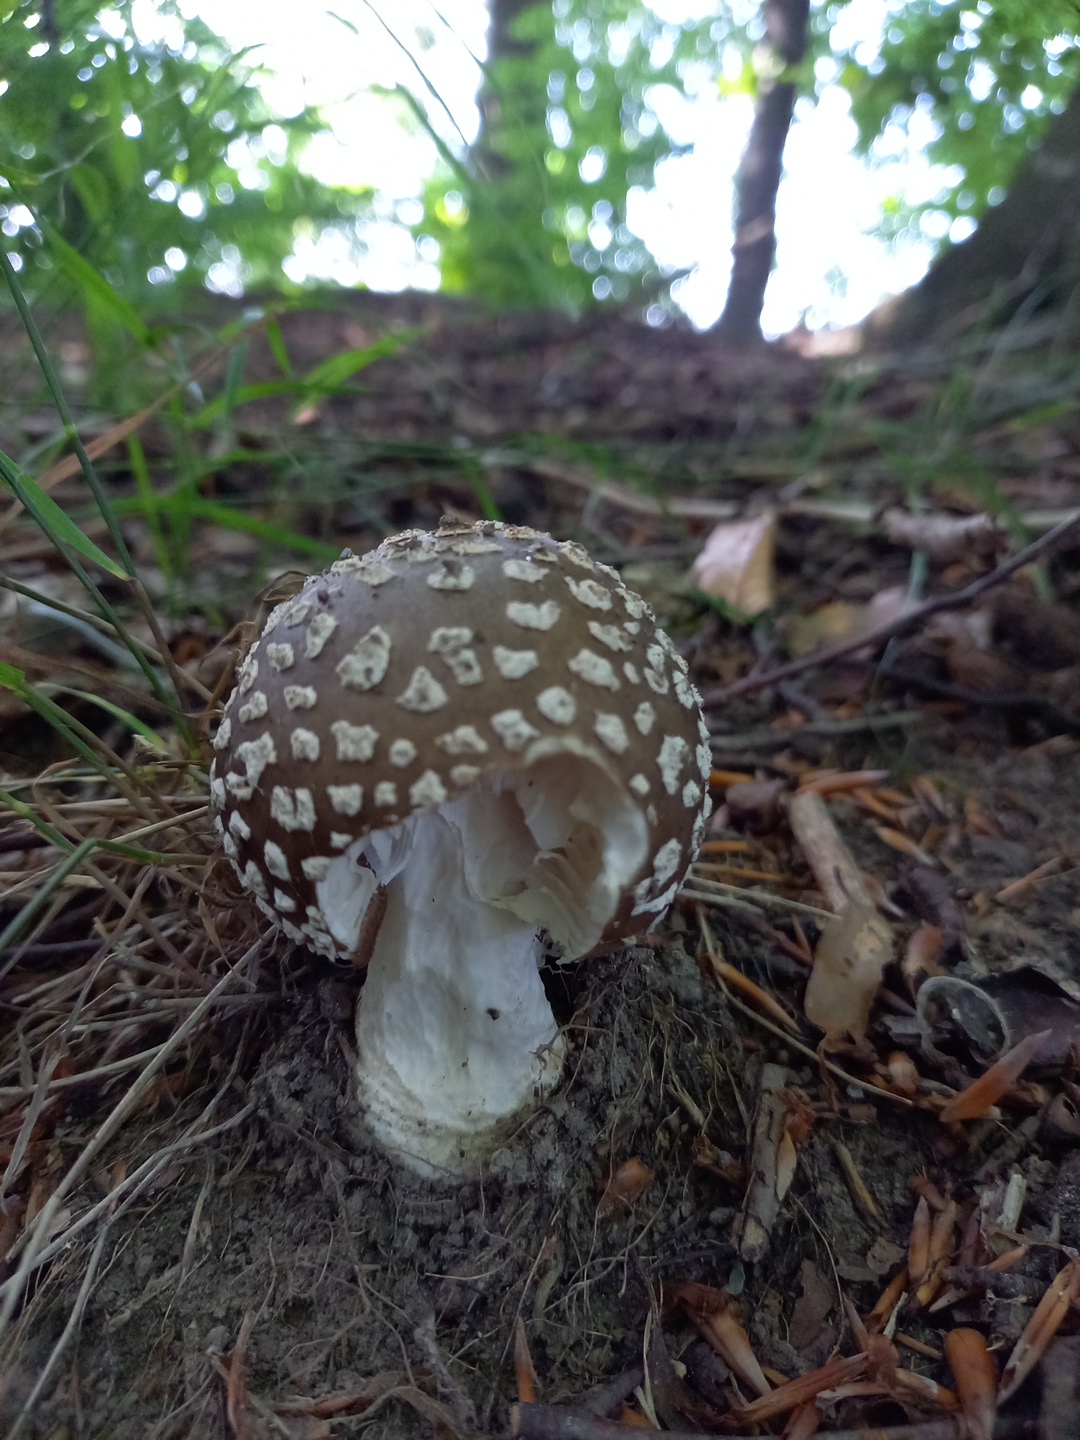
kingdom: Fungi
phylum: Basidiomycota
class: Agaricomycetes
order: Agaricales
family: Amanitaceae
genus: Amanita
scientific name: Amanita
